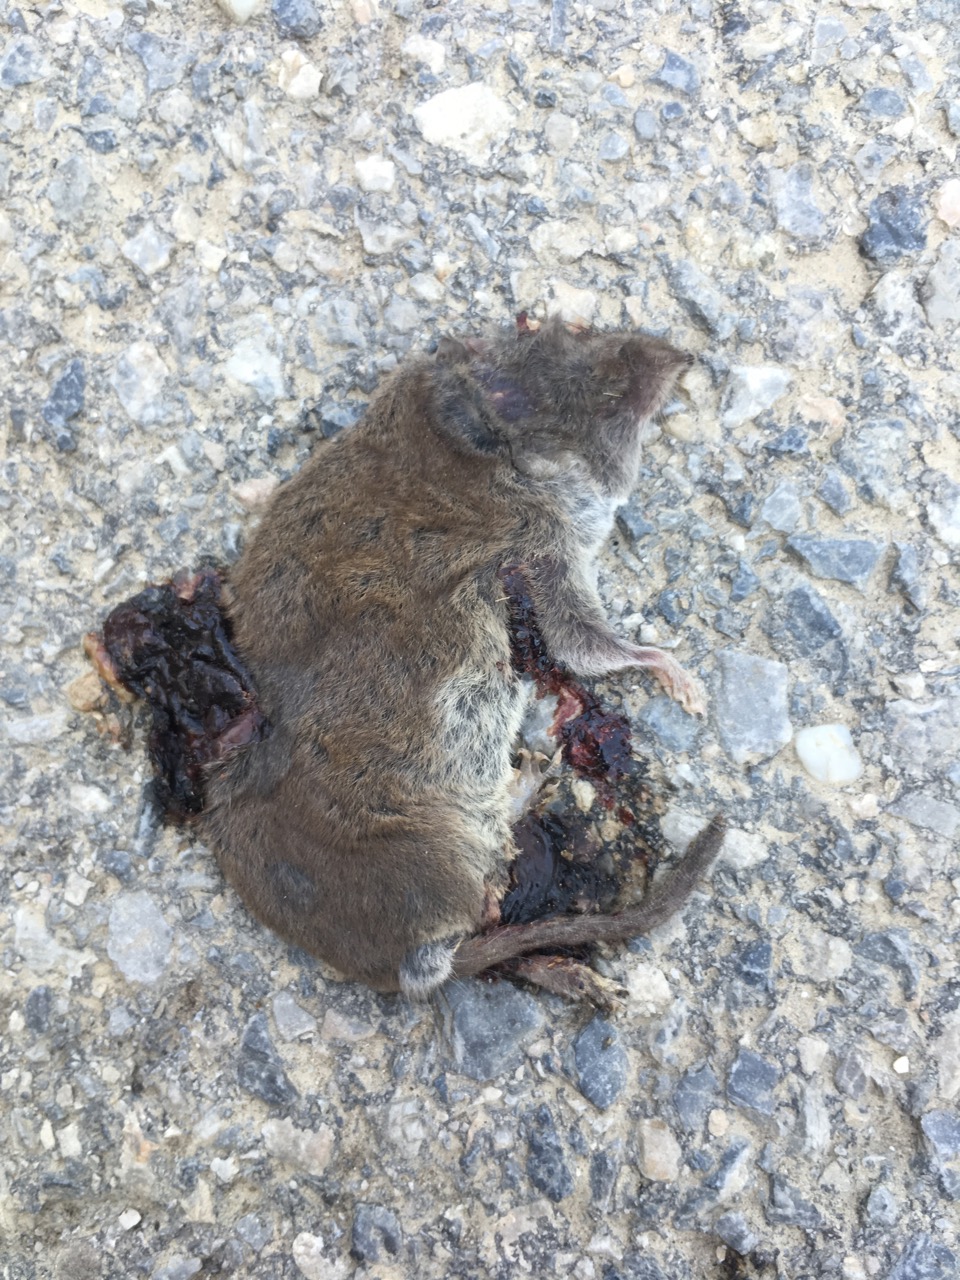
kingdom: Animalia
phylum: Chordata
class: Mammalia
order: Soricomorpha
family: Soricidae
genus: Crocidura
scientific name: Crocidura suaveolens
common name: Lesser white-toothed shrew
